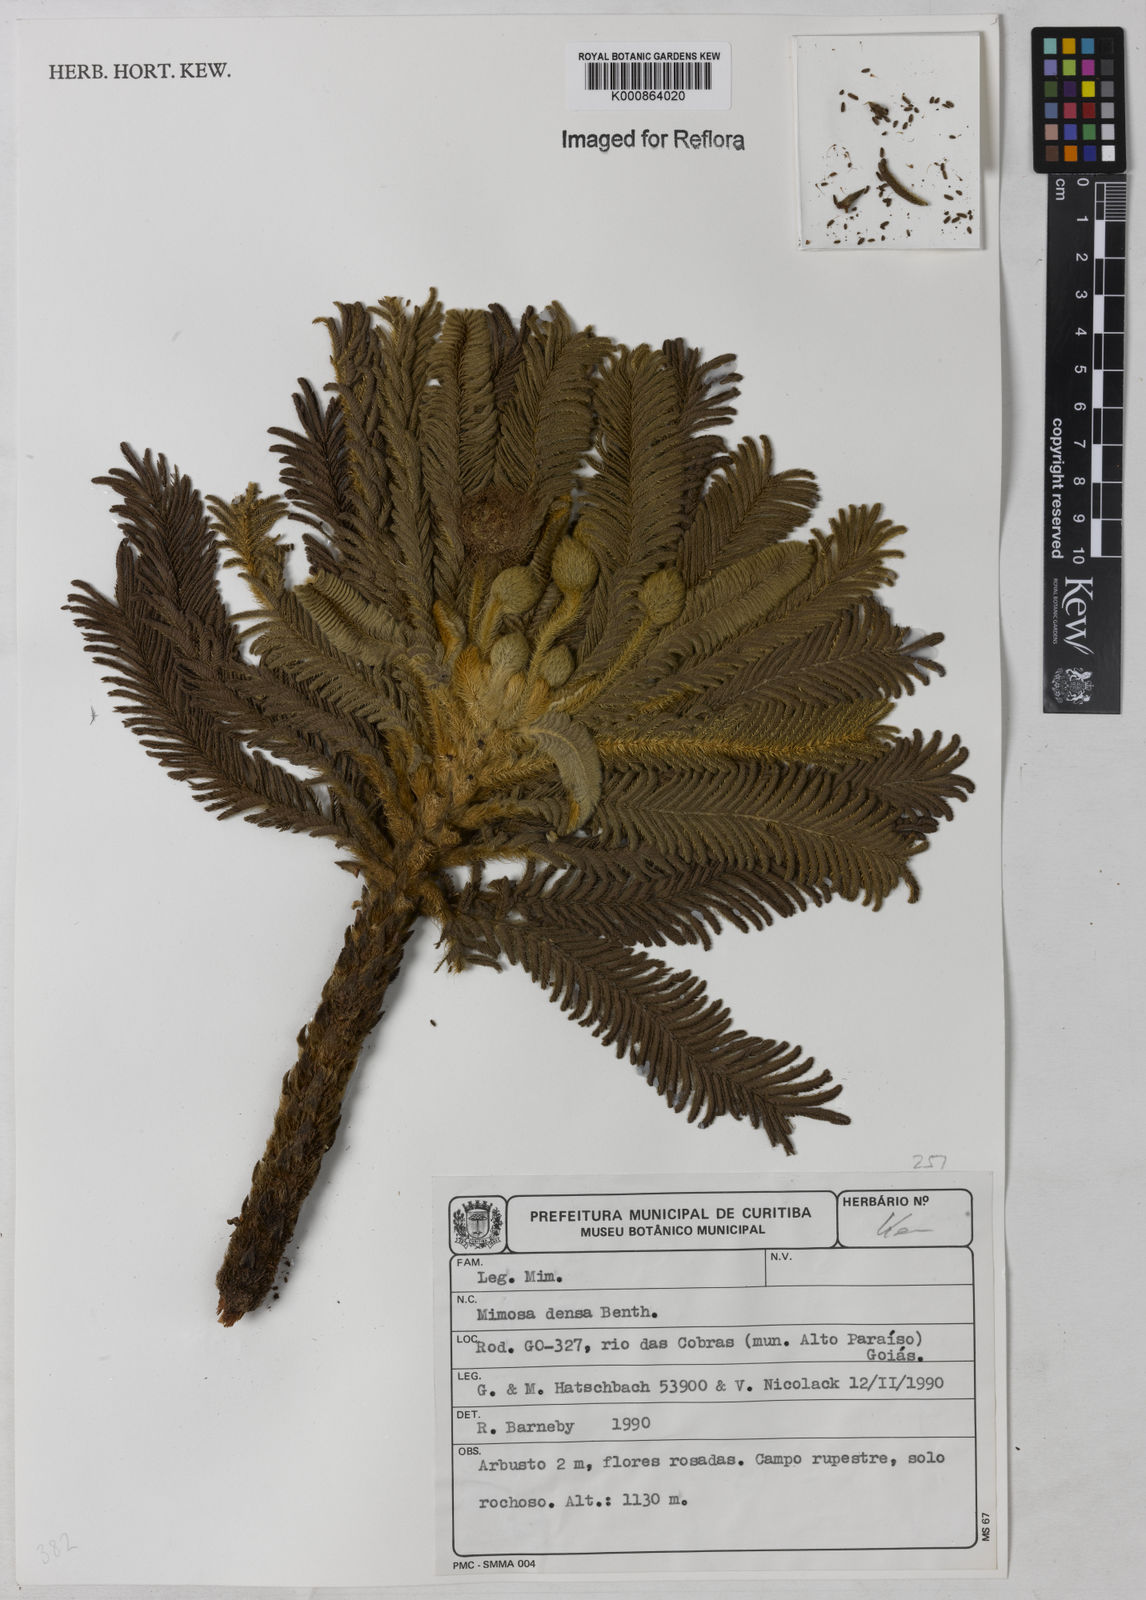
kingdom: Plantae
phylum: Tracheophyta
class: Magnoliopsida
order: Fabales
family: Fabaceae
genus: Mimosa
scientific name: Mimosa manidea
